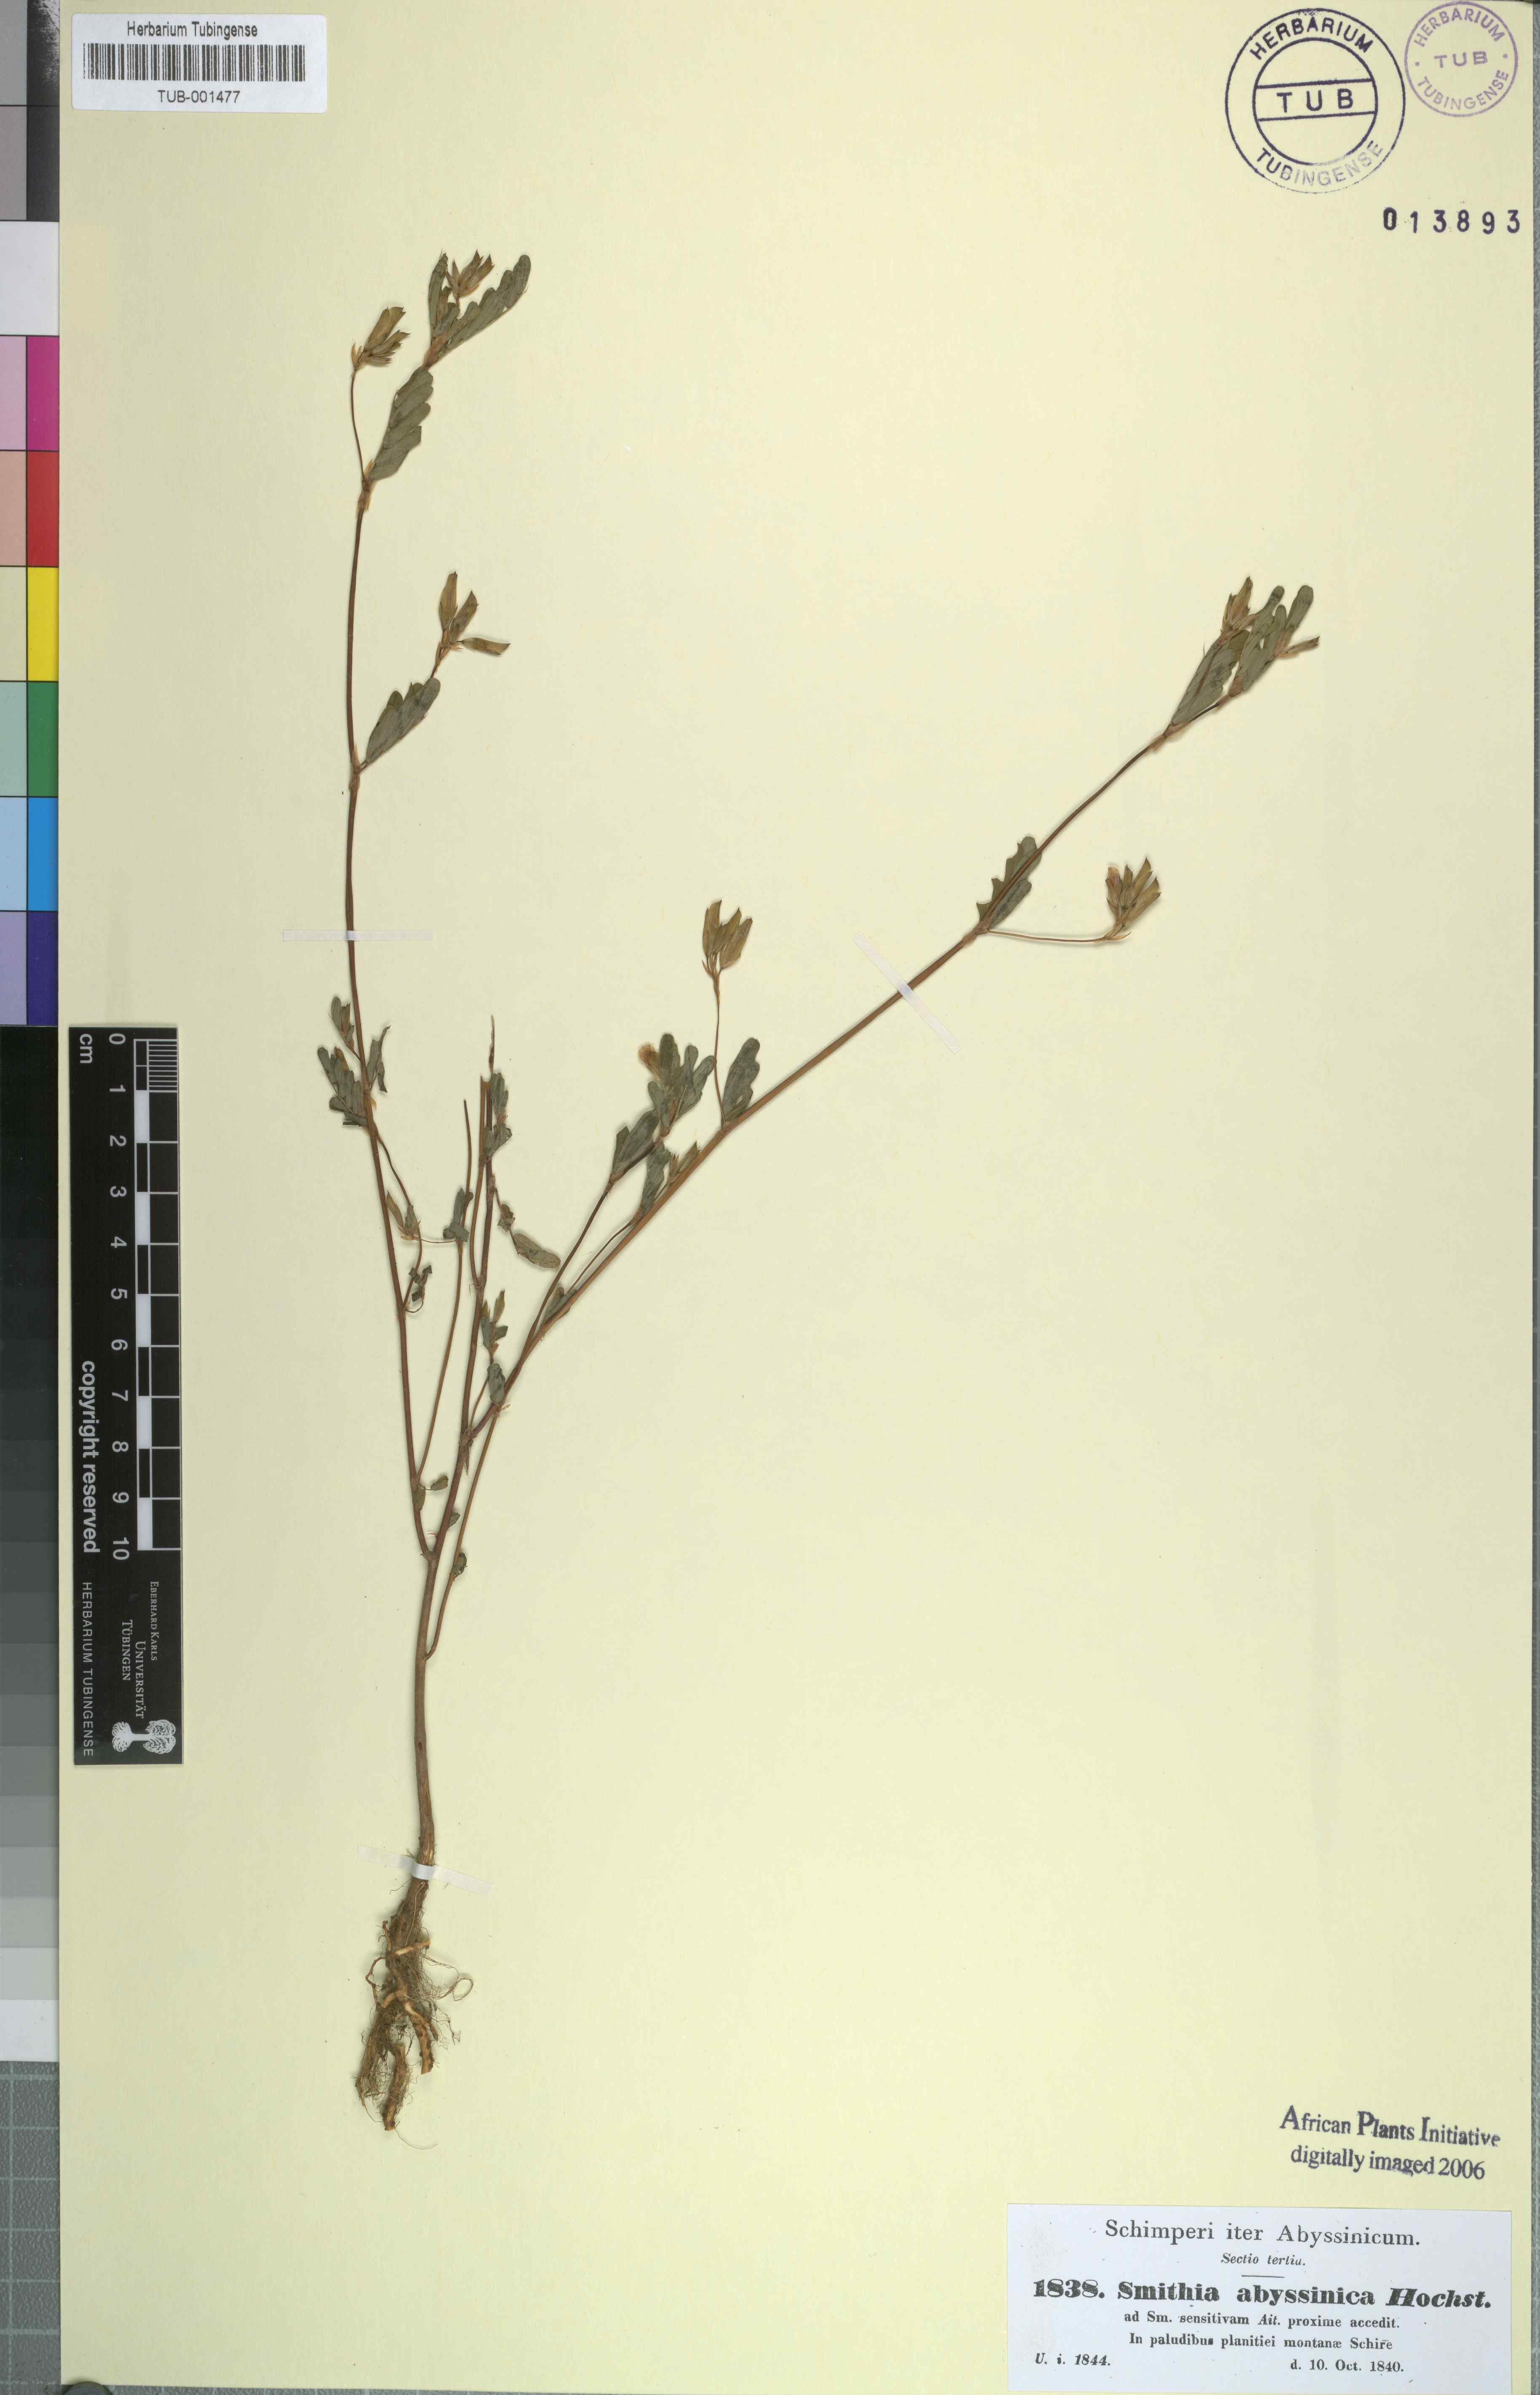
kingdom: Plantae
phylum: Tracheophyta
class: Magnoliopsida
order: Fabales
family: Fabaceae
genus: Smithia
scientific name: Smithia sensitiva
